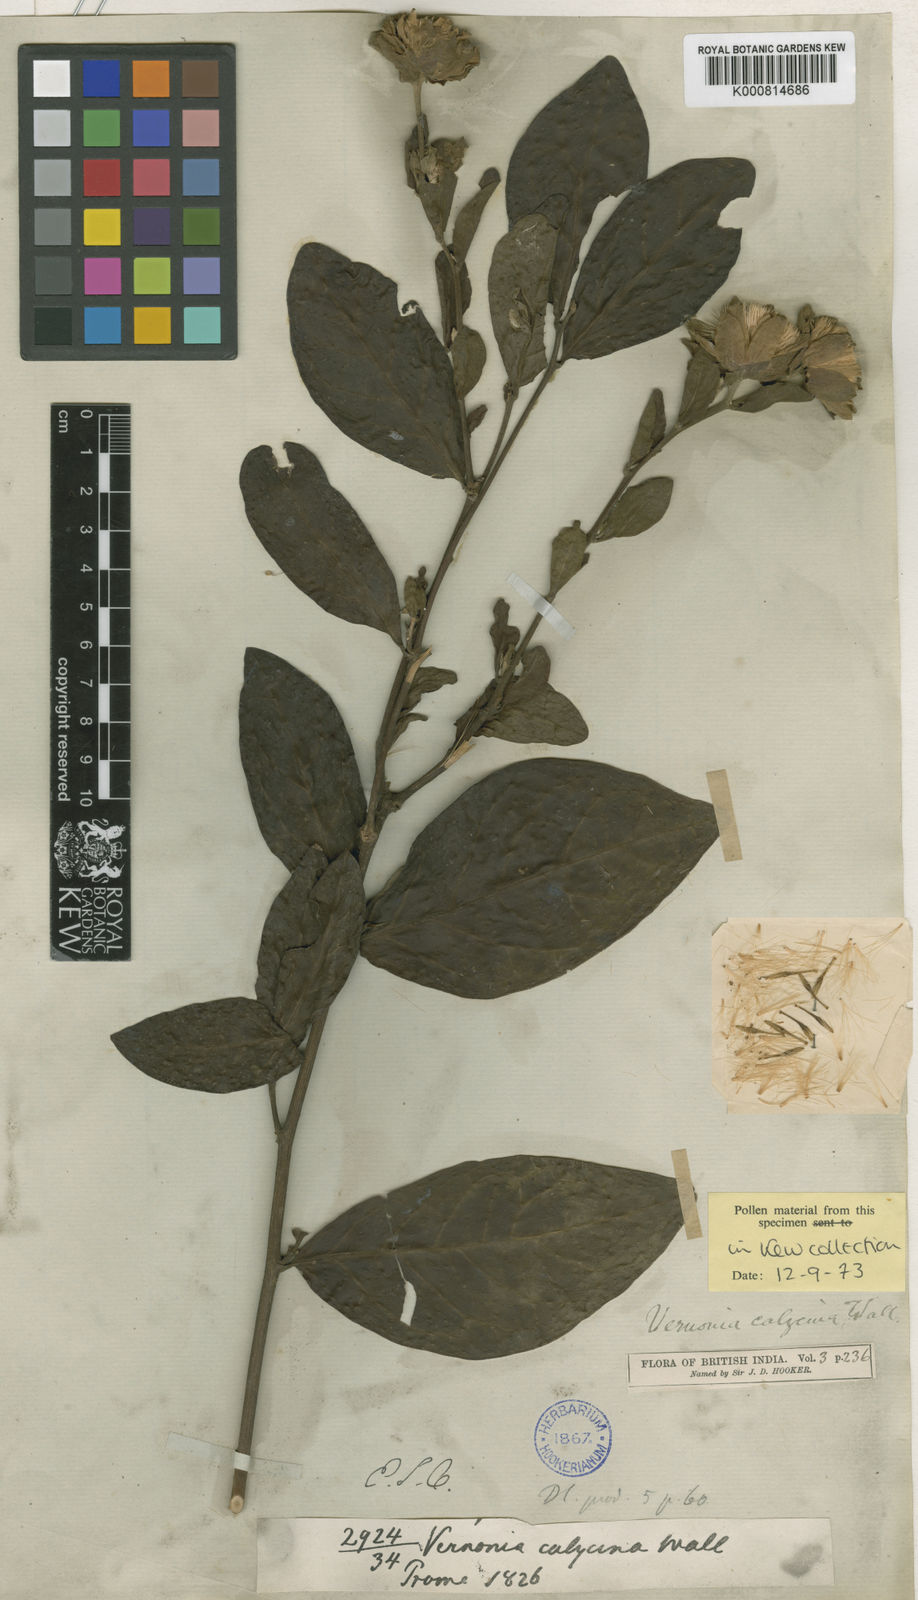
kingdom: Plantae
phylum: Tracheophyta
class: Magnoliopsida
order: Asterales
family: Asteraceae
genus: Vernonia
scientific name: Vernonia
